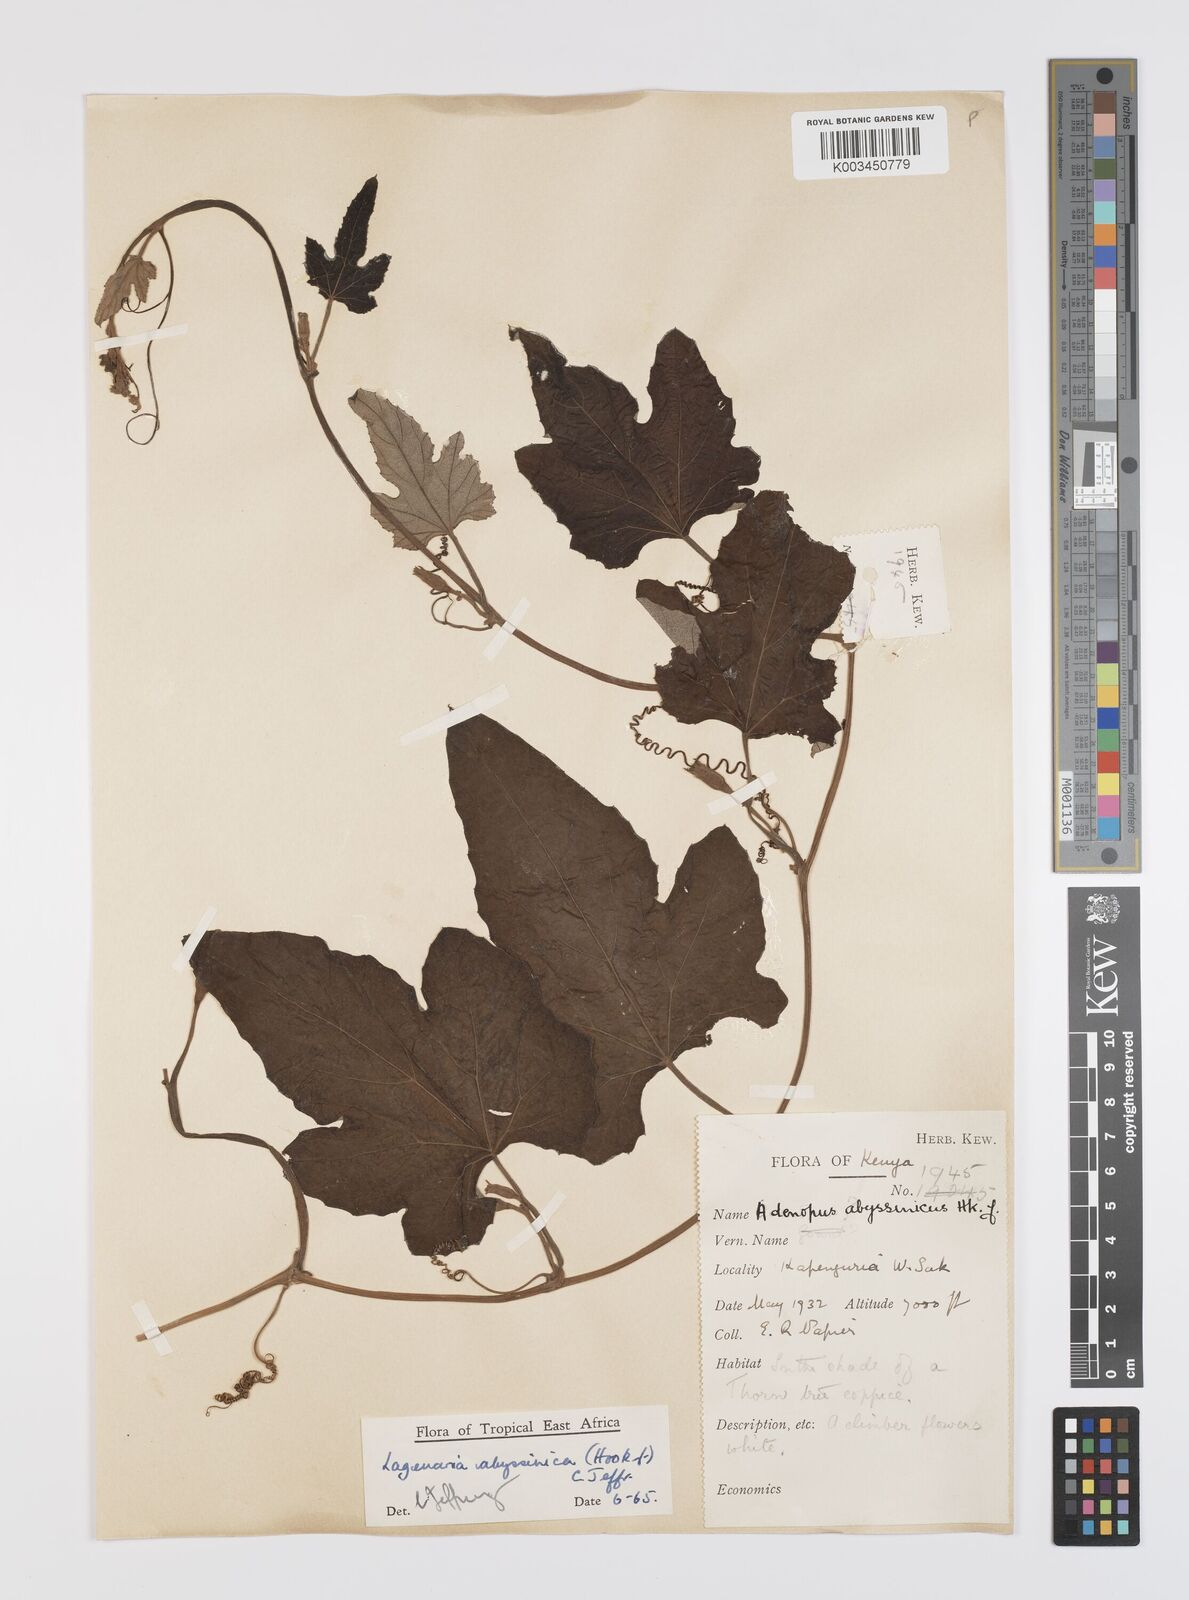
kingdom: Plantae
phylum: Tracheophyta
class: Magnoliopsida
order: Cucurbitales
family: Cucurbitaceae
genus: Lagenaria
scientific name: Lagenaria abyssinica
